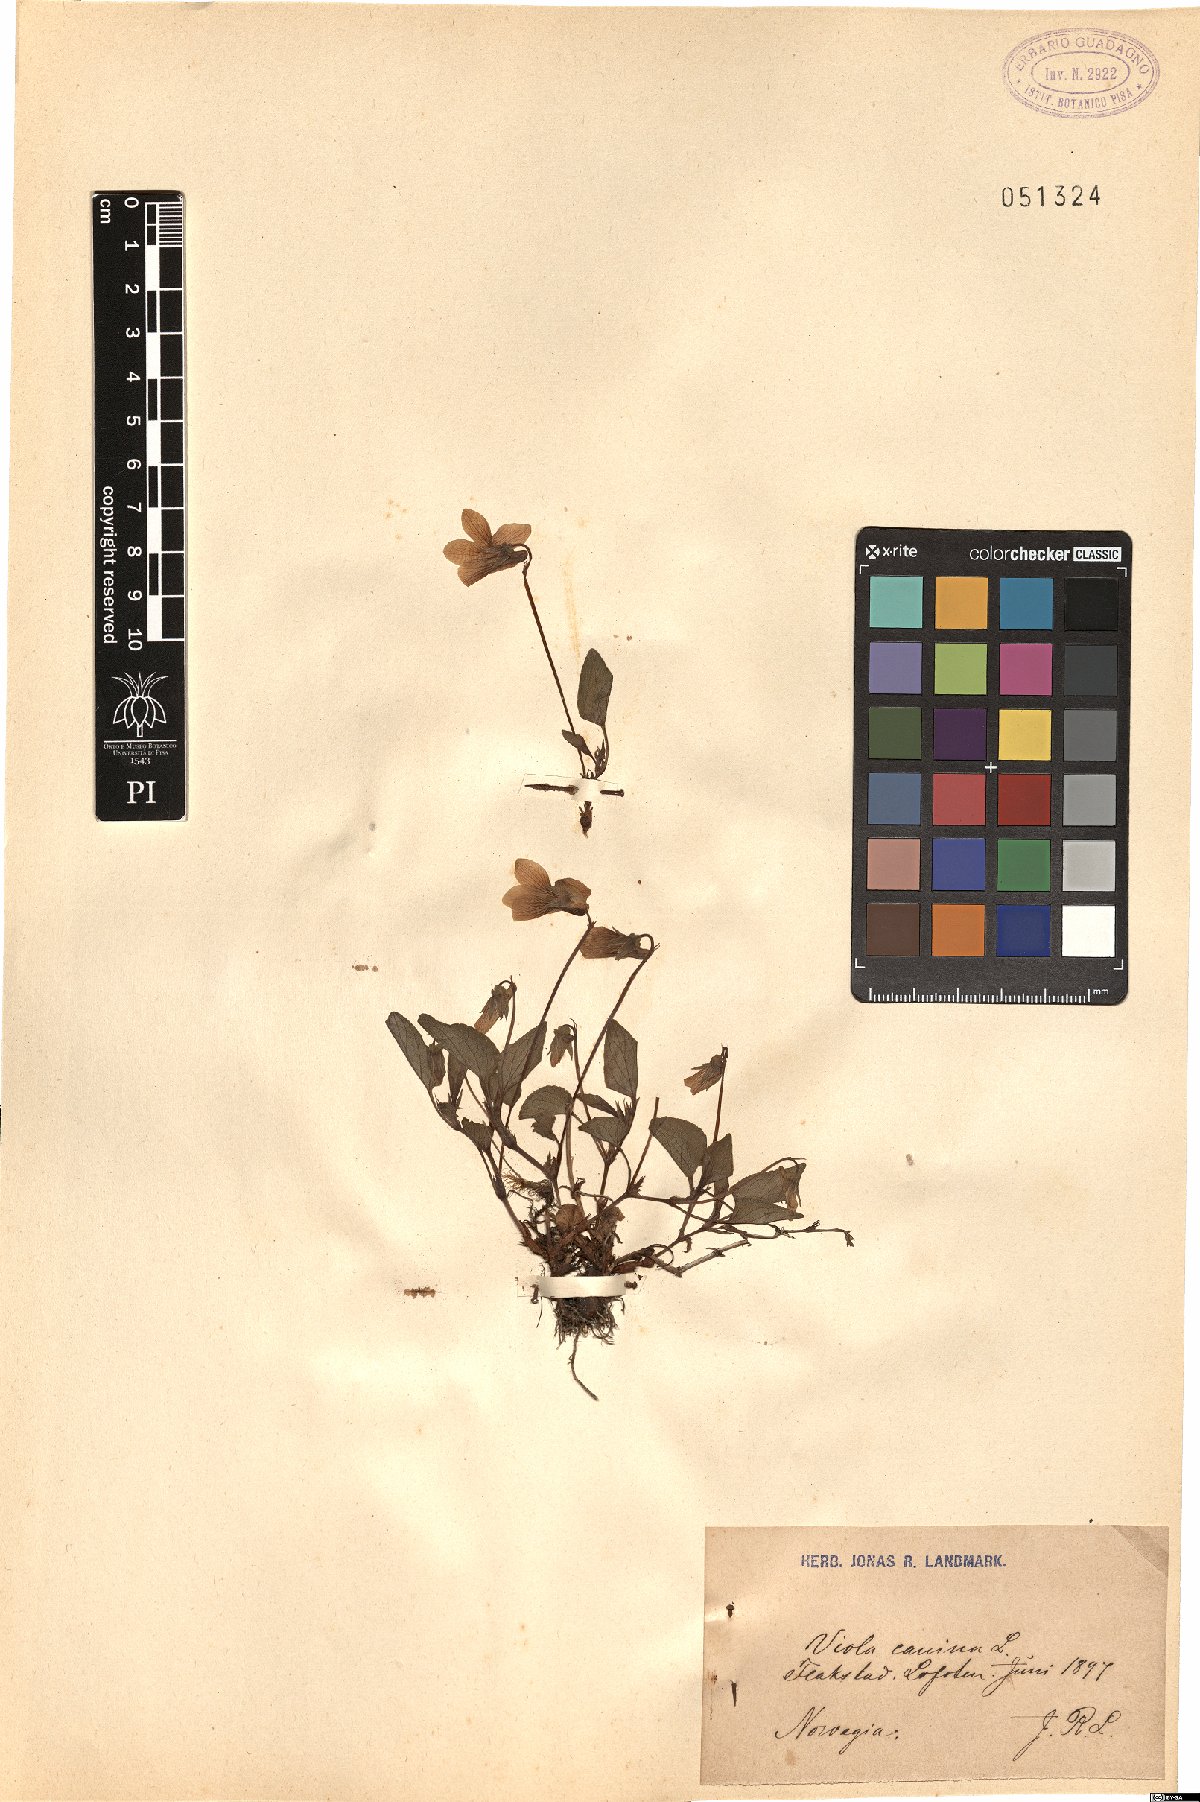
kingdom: Plantae
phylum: Tracheophyta
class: Magnoliopsida
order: Malpighiales
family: Violaceae
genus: Viola
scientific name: Viola canina
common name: Heath dog-violet
